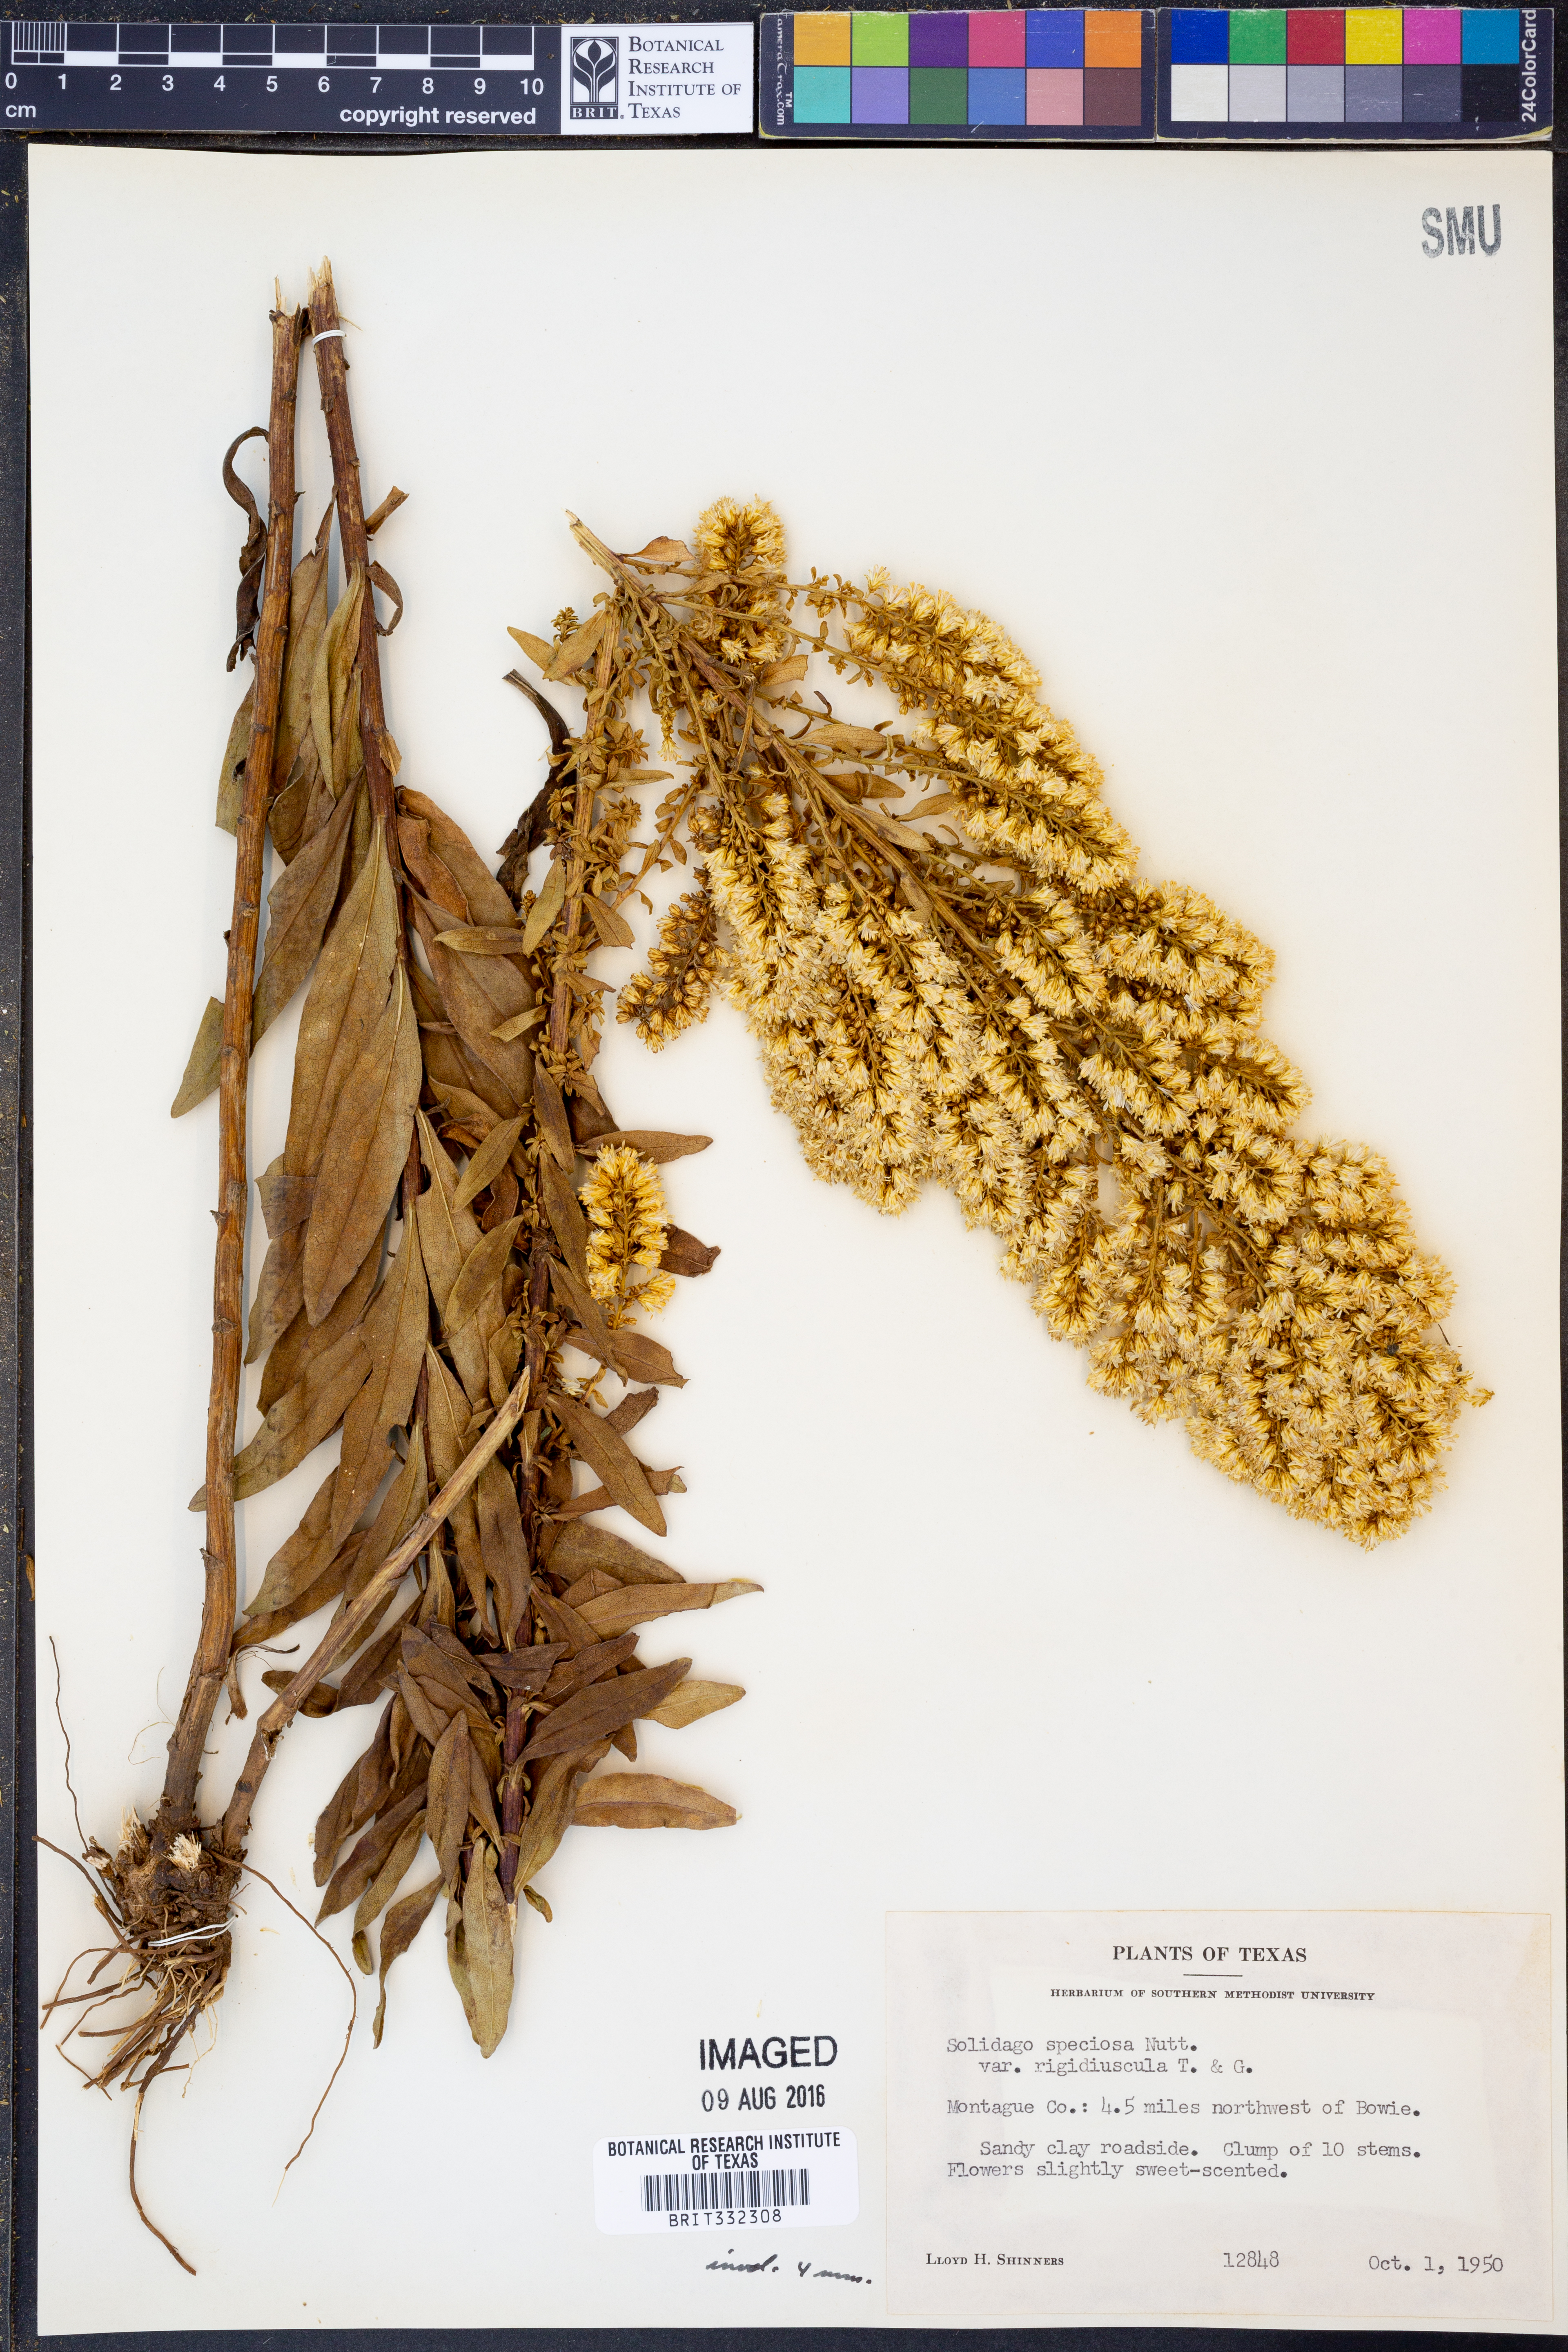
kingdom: Plantae
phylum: Tracheophyta
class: Magnoliopsida
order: Asterales
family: Asteraceae
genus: Solidago
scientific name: Solidago rigidiuscula
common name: Stiff-leaved showy goldenrod
